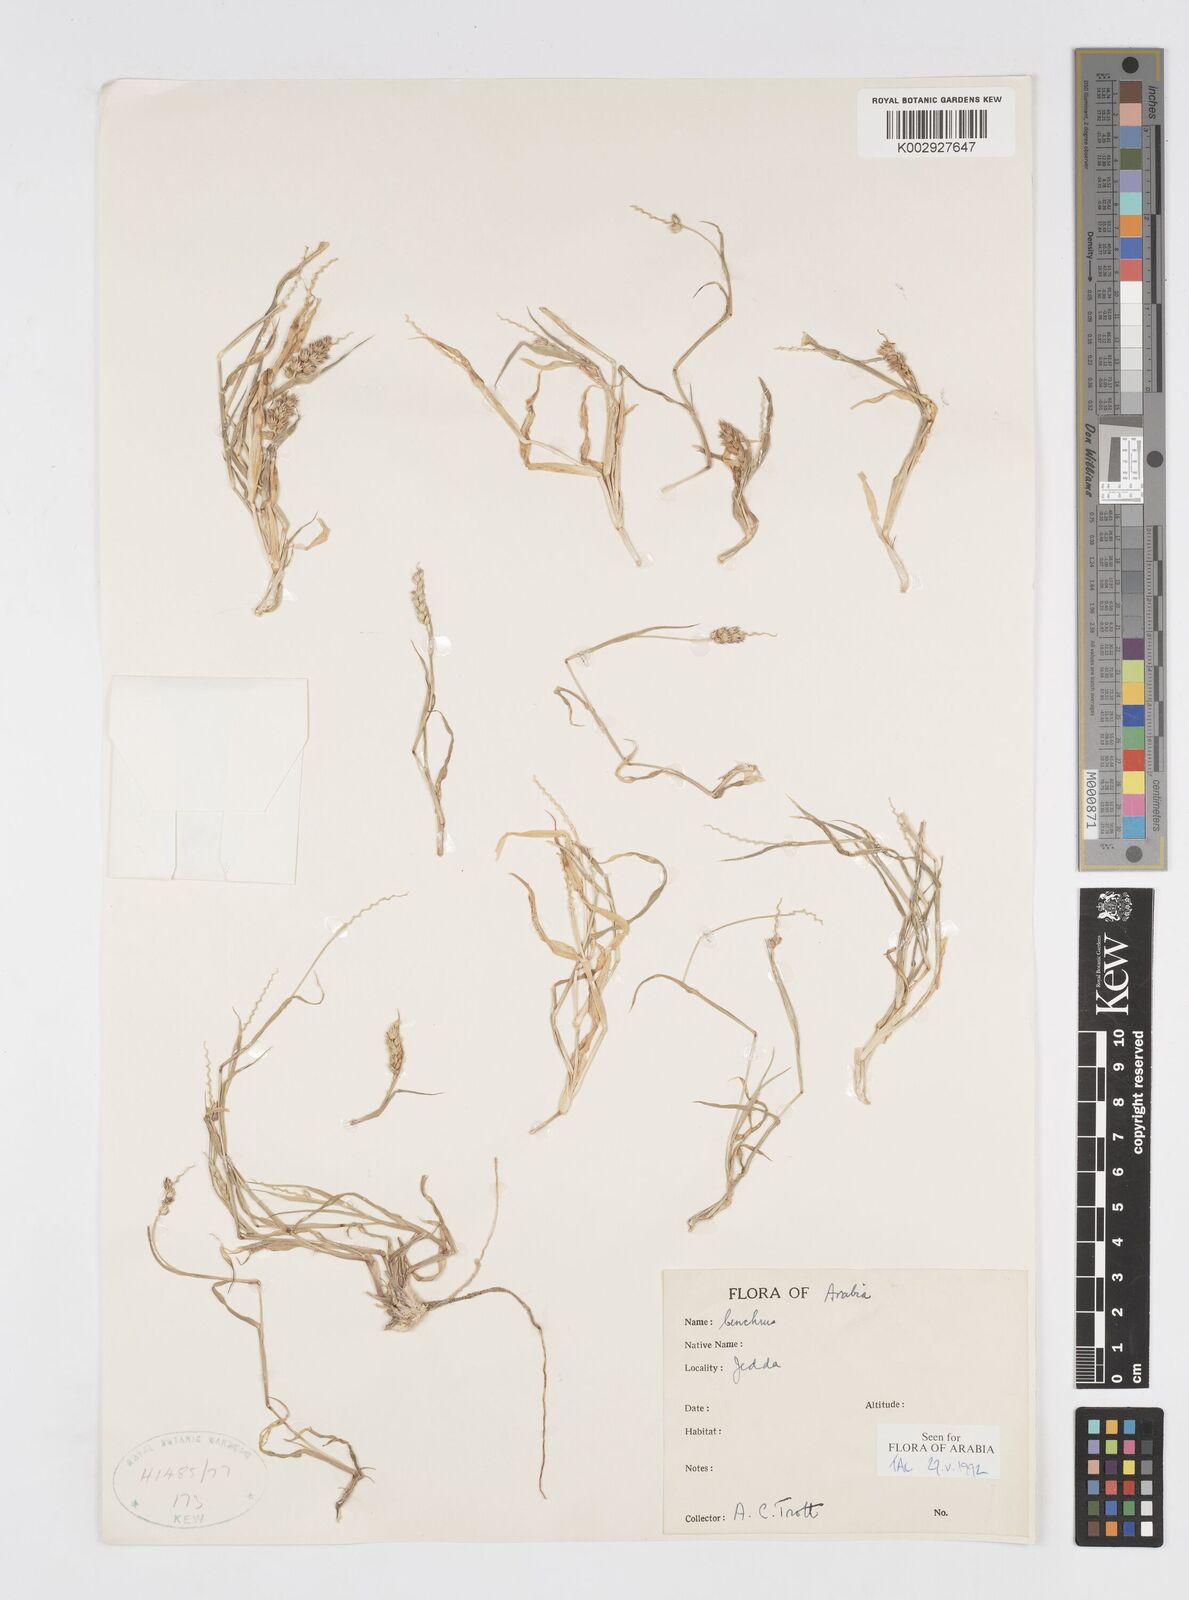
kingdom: Plantae
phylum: Tracheophyta
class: Liliopsida
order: Poales
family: Poaceae
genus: Cenchrus
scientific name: Cenchrus setigerus
